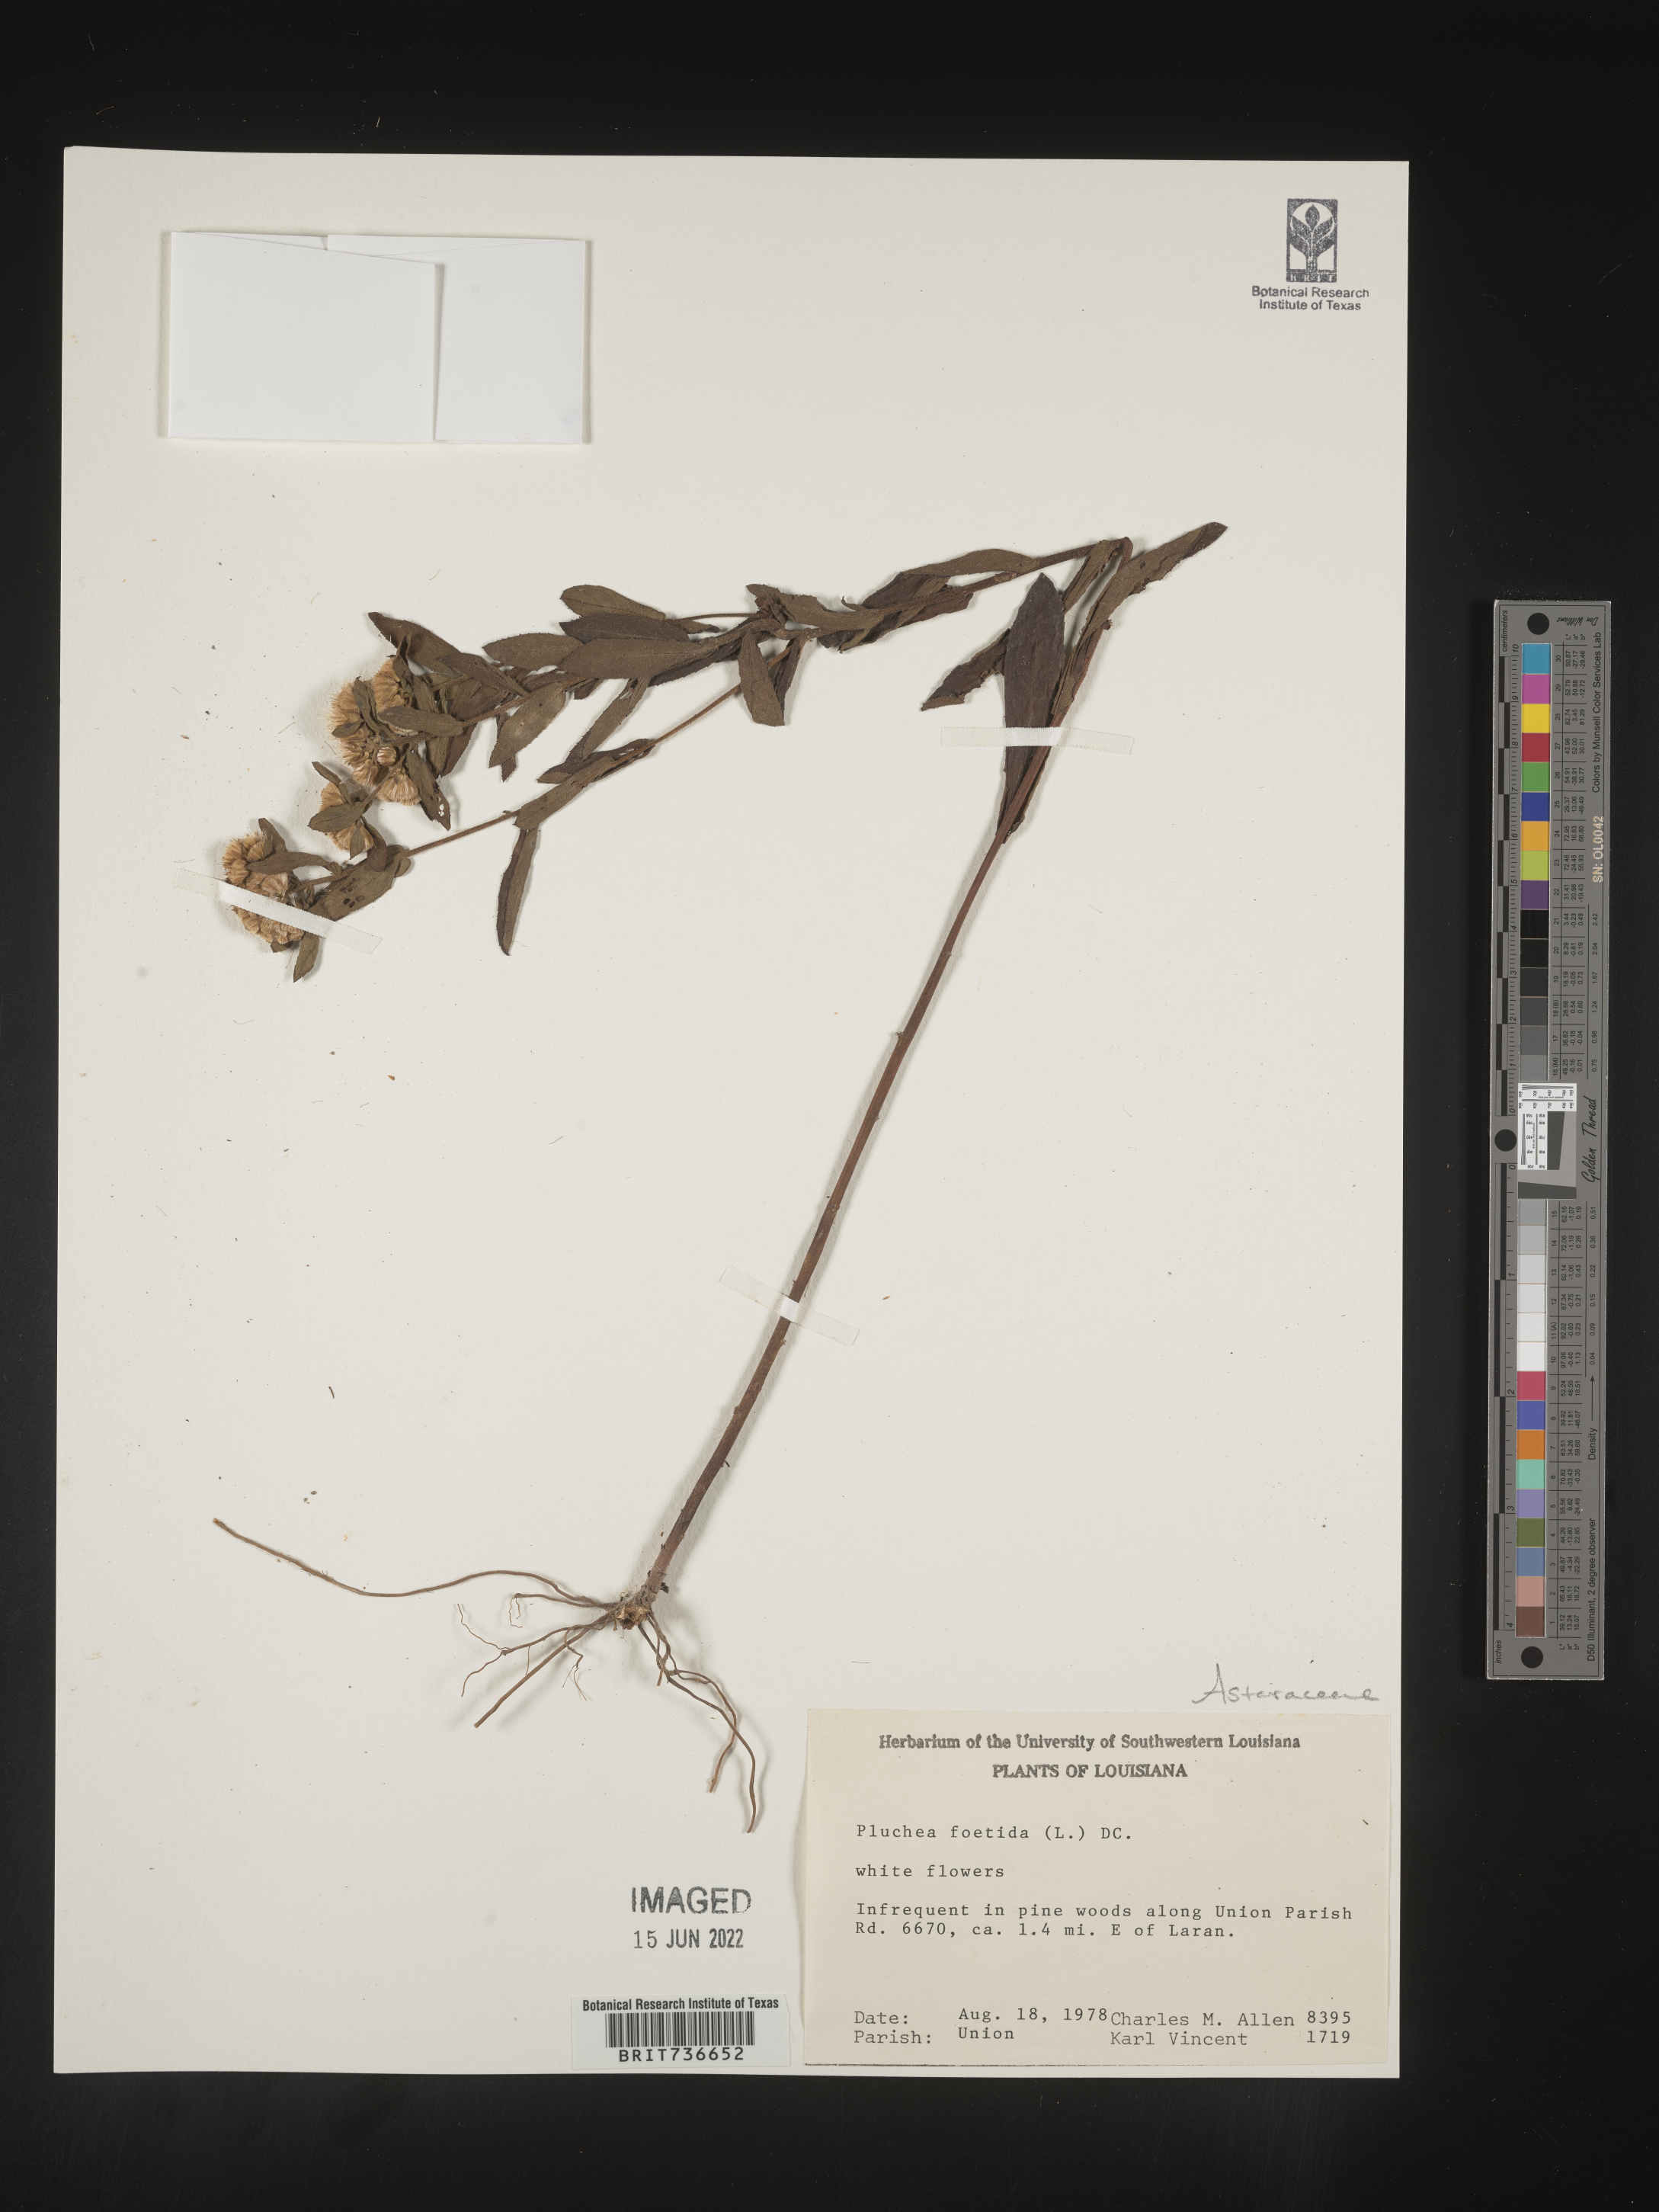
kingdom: Plantae
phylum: Tracheophyta
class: Magnoliopsida
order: Asterales
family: Asteraceae
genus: Pluchea
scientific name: Pluchea foetida
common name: Stinking camphorweed
